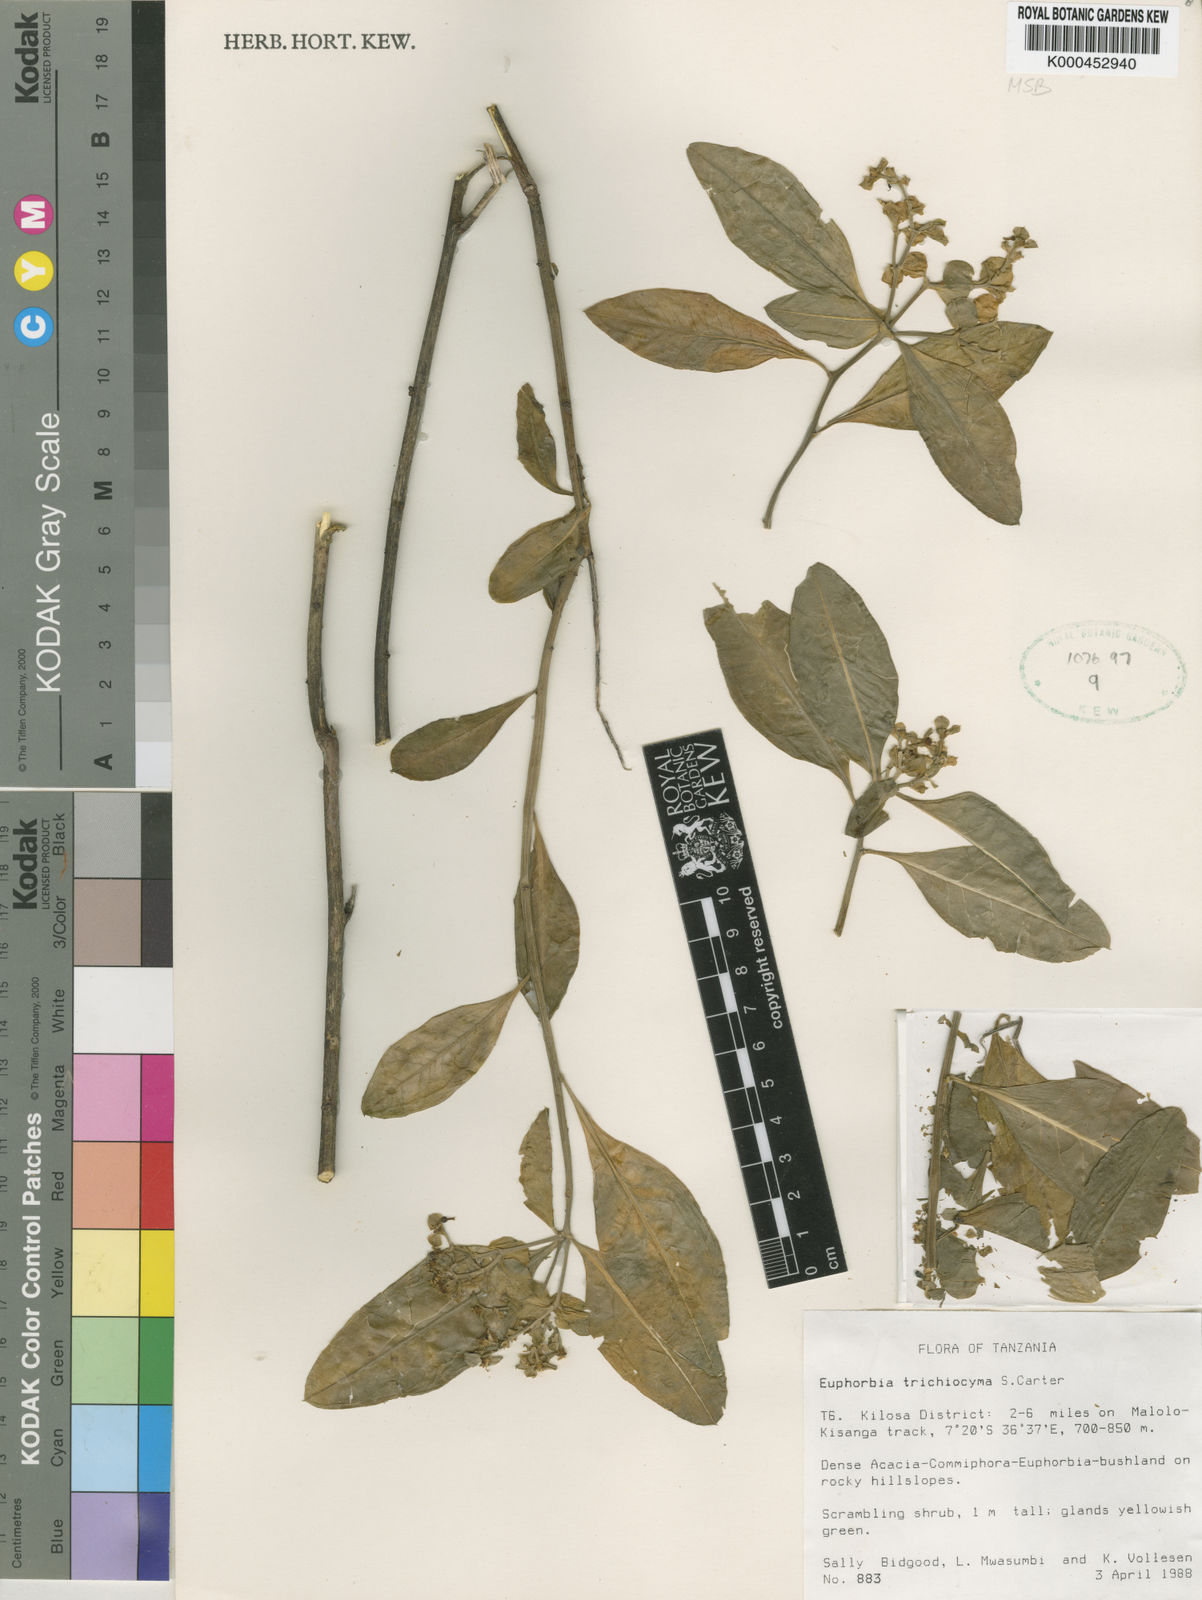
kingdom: Plantae
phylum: Tracheophyta
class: Magnoliopsida
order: Malpighiales
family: Euphorbiaceae
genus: Euphorbia
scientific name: Euphorbia trichiocyma
